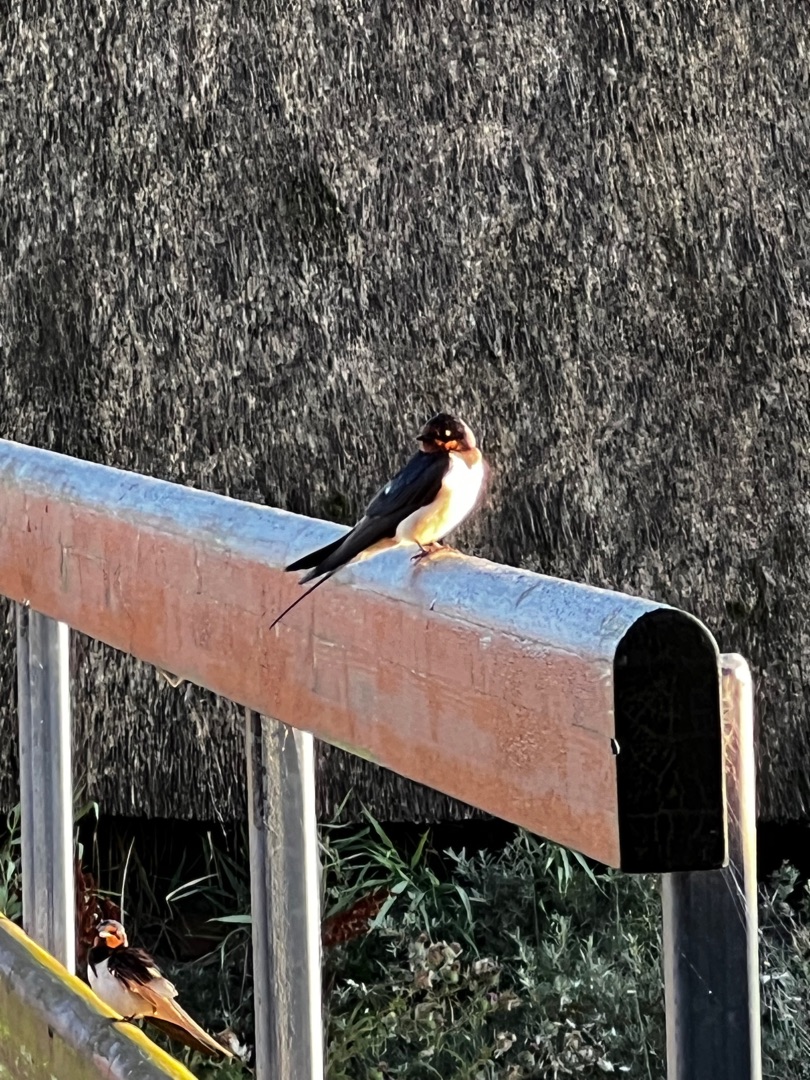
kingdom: Animalia
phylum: Chordata
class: Aves
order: Passeriformes
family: Hirundinidae
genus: Hirundo
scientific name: Hirundo rustica
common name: Landsvale
